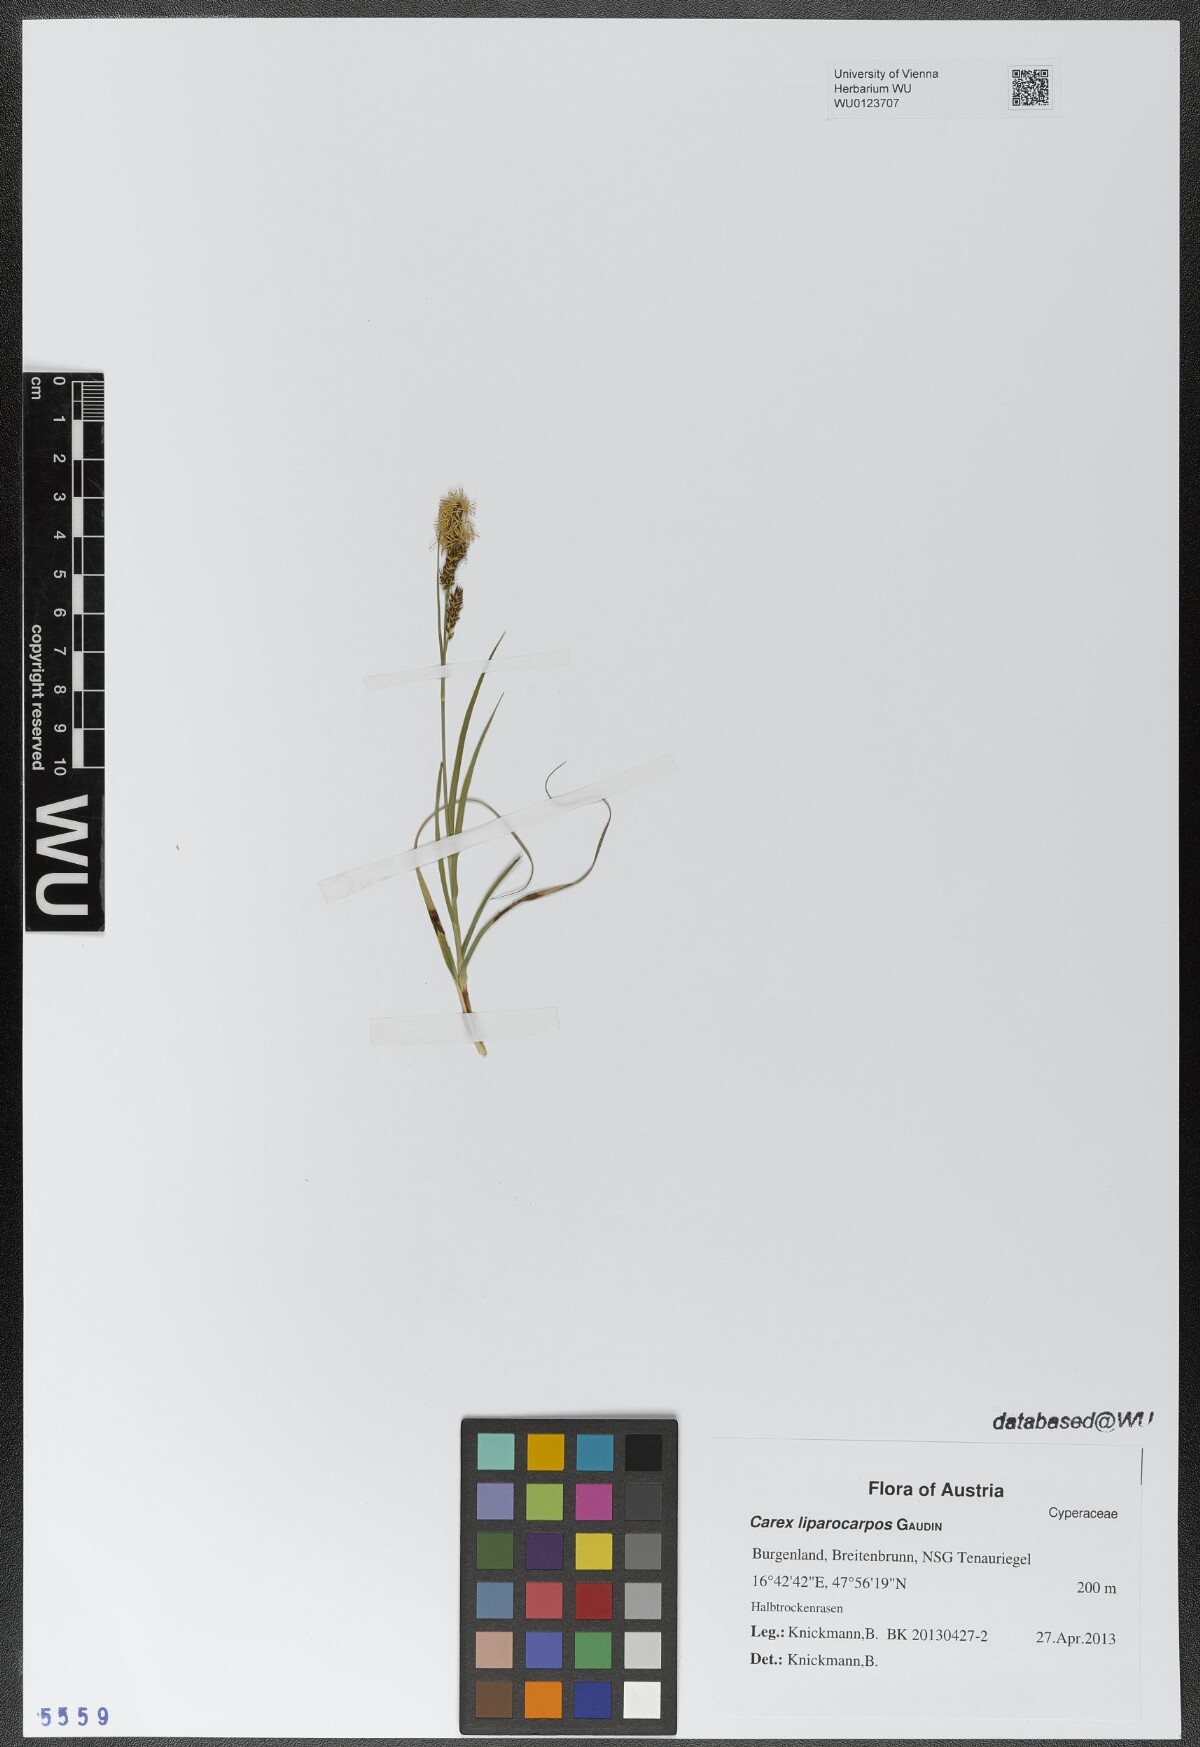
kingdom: Plantae
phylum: Tracheophyta
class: Liliopsida
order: Poales
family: Cyperaceae
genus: Carex
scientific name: Carex liparocarpos
